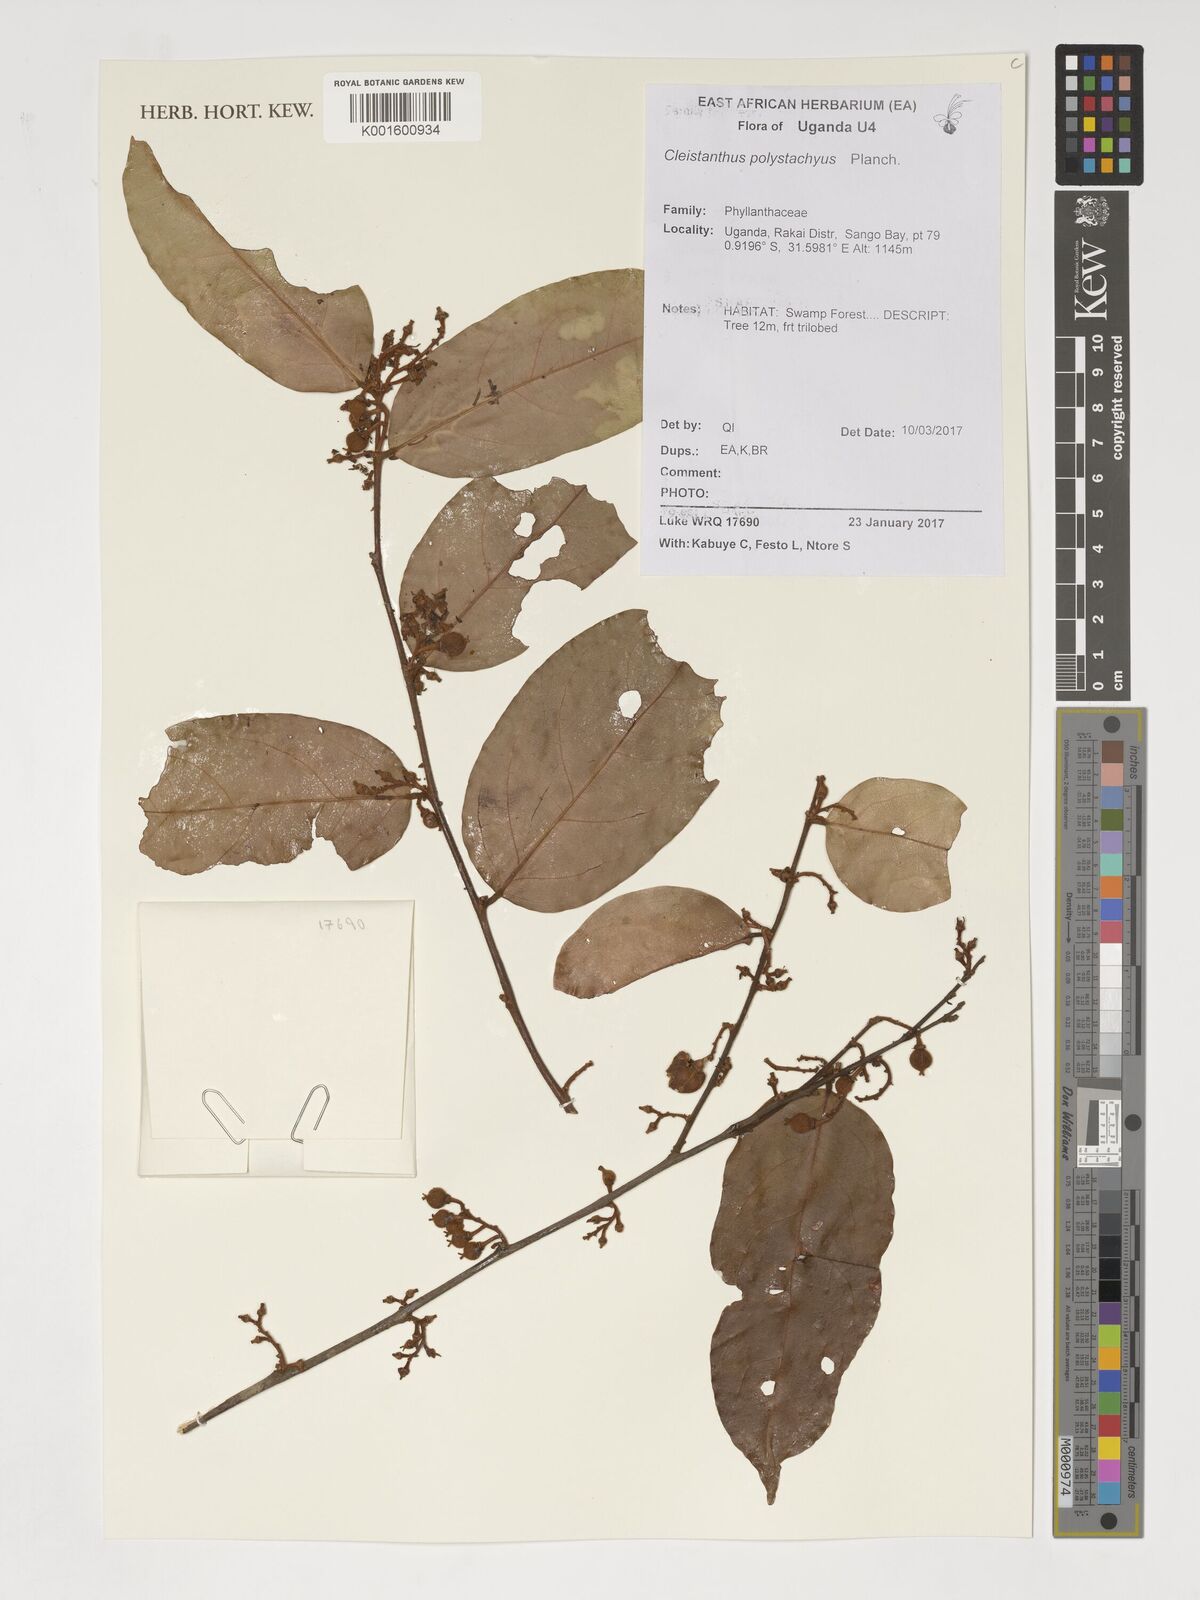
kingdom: Plantae
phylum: Tracheophyta
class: Magnoliopsida
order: Malpighiales
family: Phyllanthaceae
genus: Cleistanthus
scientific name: Cleistanthus polystachyus
